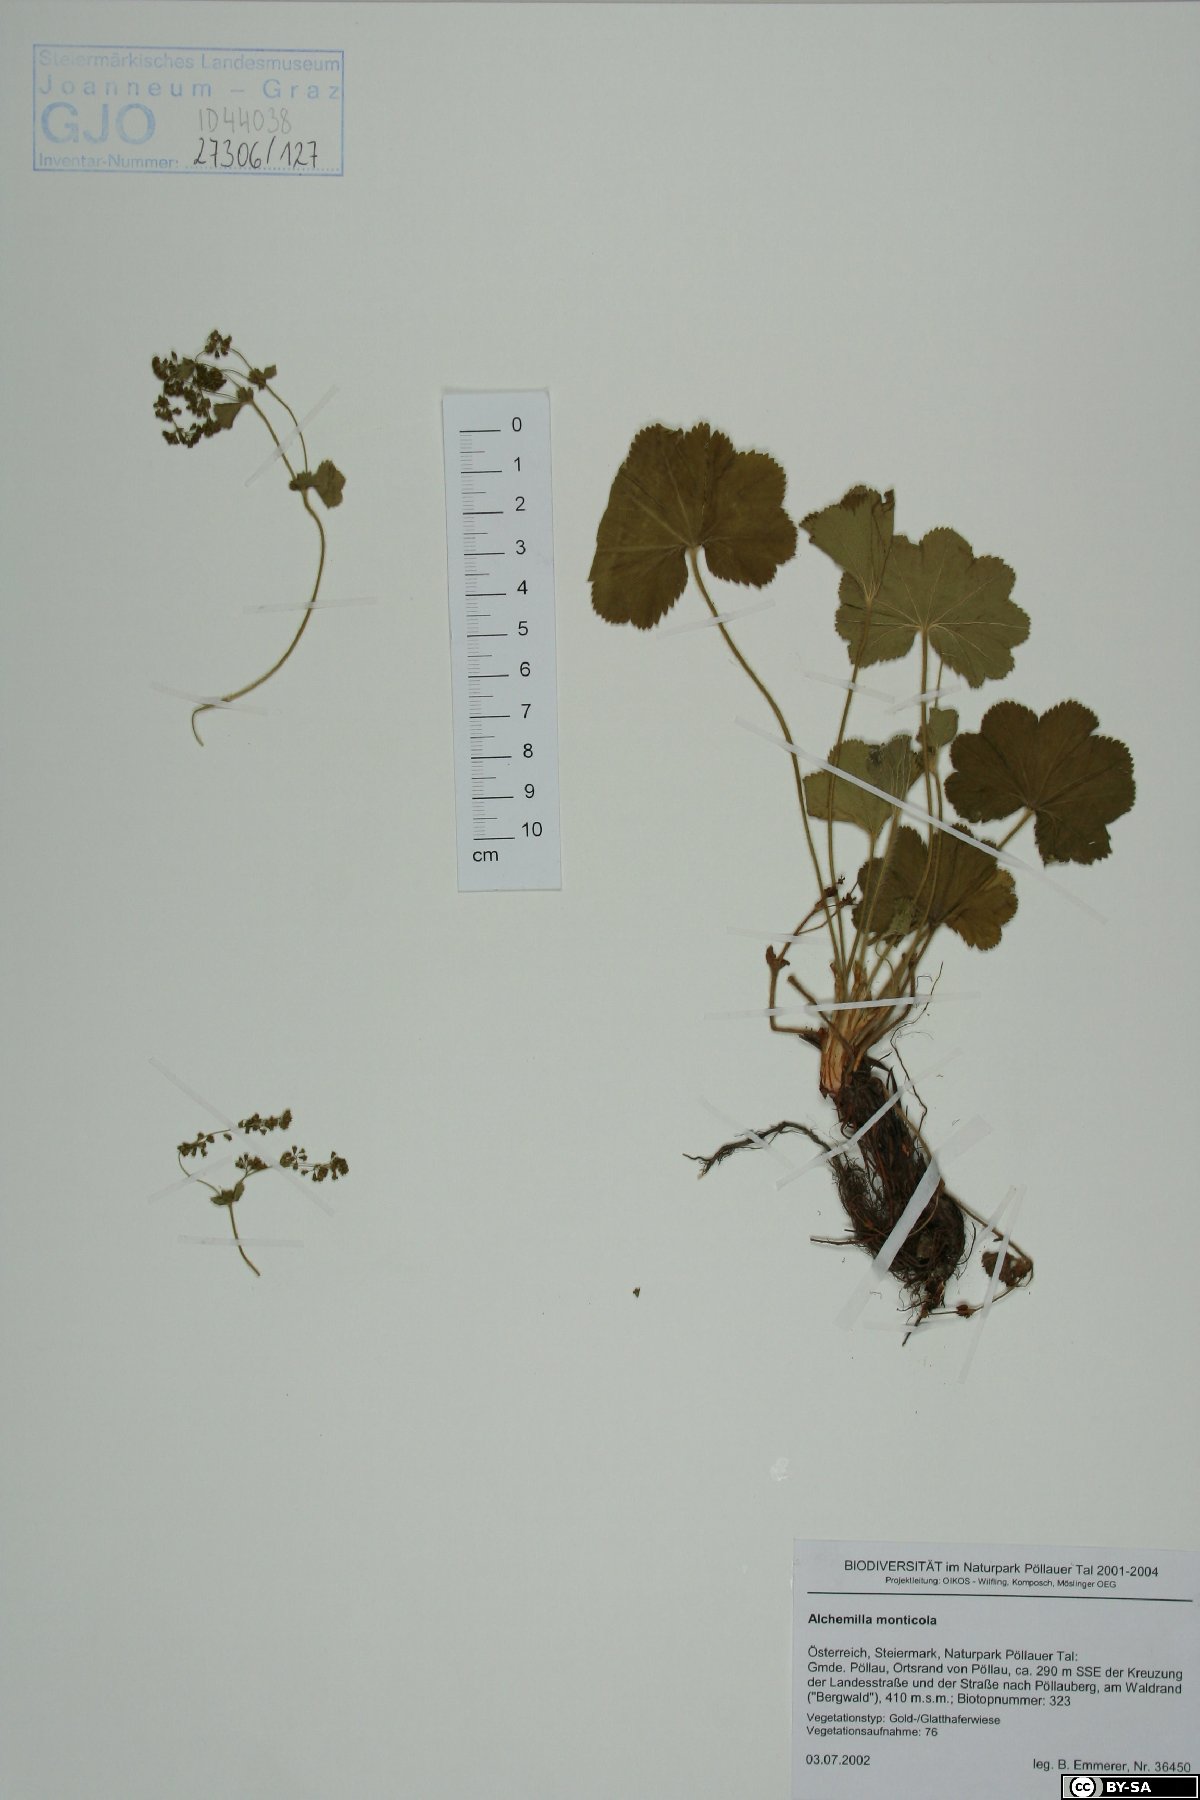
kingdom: Plantae
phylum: Tracheophyta
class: Magnoliopsida
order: Rosales
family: Rosaceae
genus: Alchemilla
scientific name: Alchemilla monticola
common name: Hairy lady's mantle
